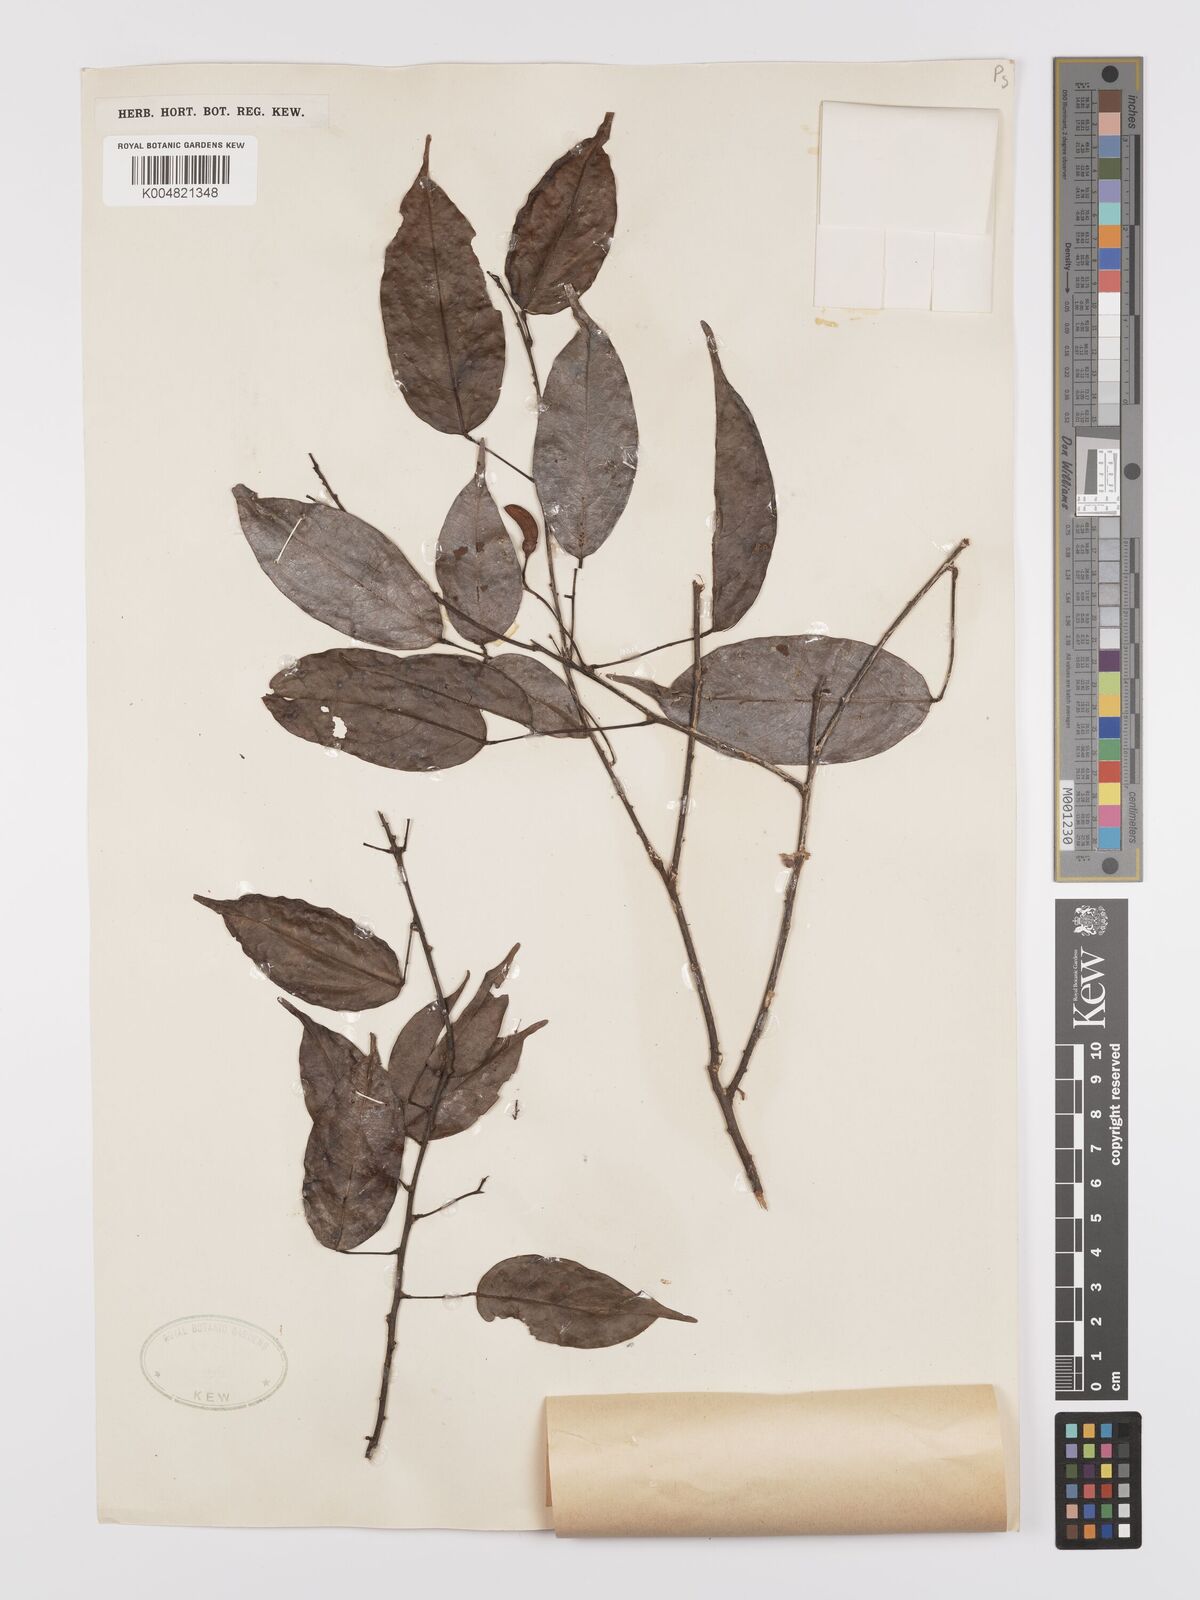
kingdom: Plantae
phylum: Tracheophyta
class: Magnoliopsida
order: Oxalidales
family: Connaraceae
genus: Rourea
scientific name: Rourea minor
